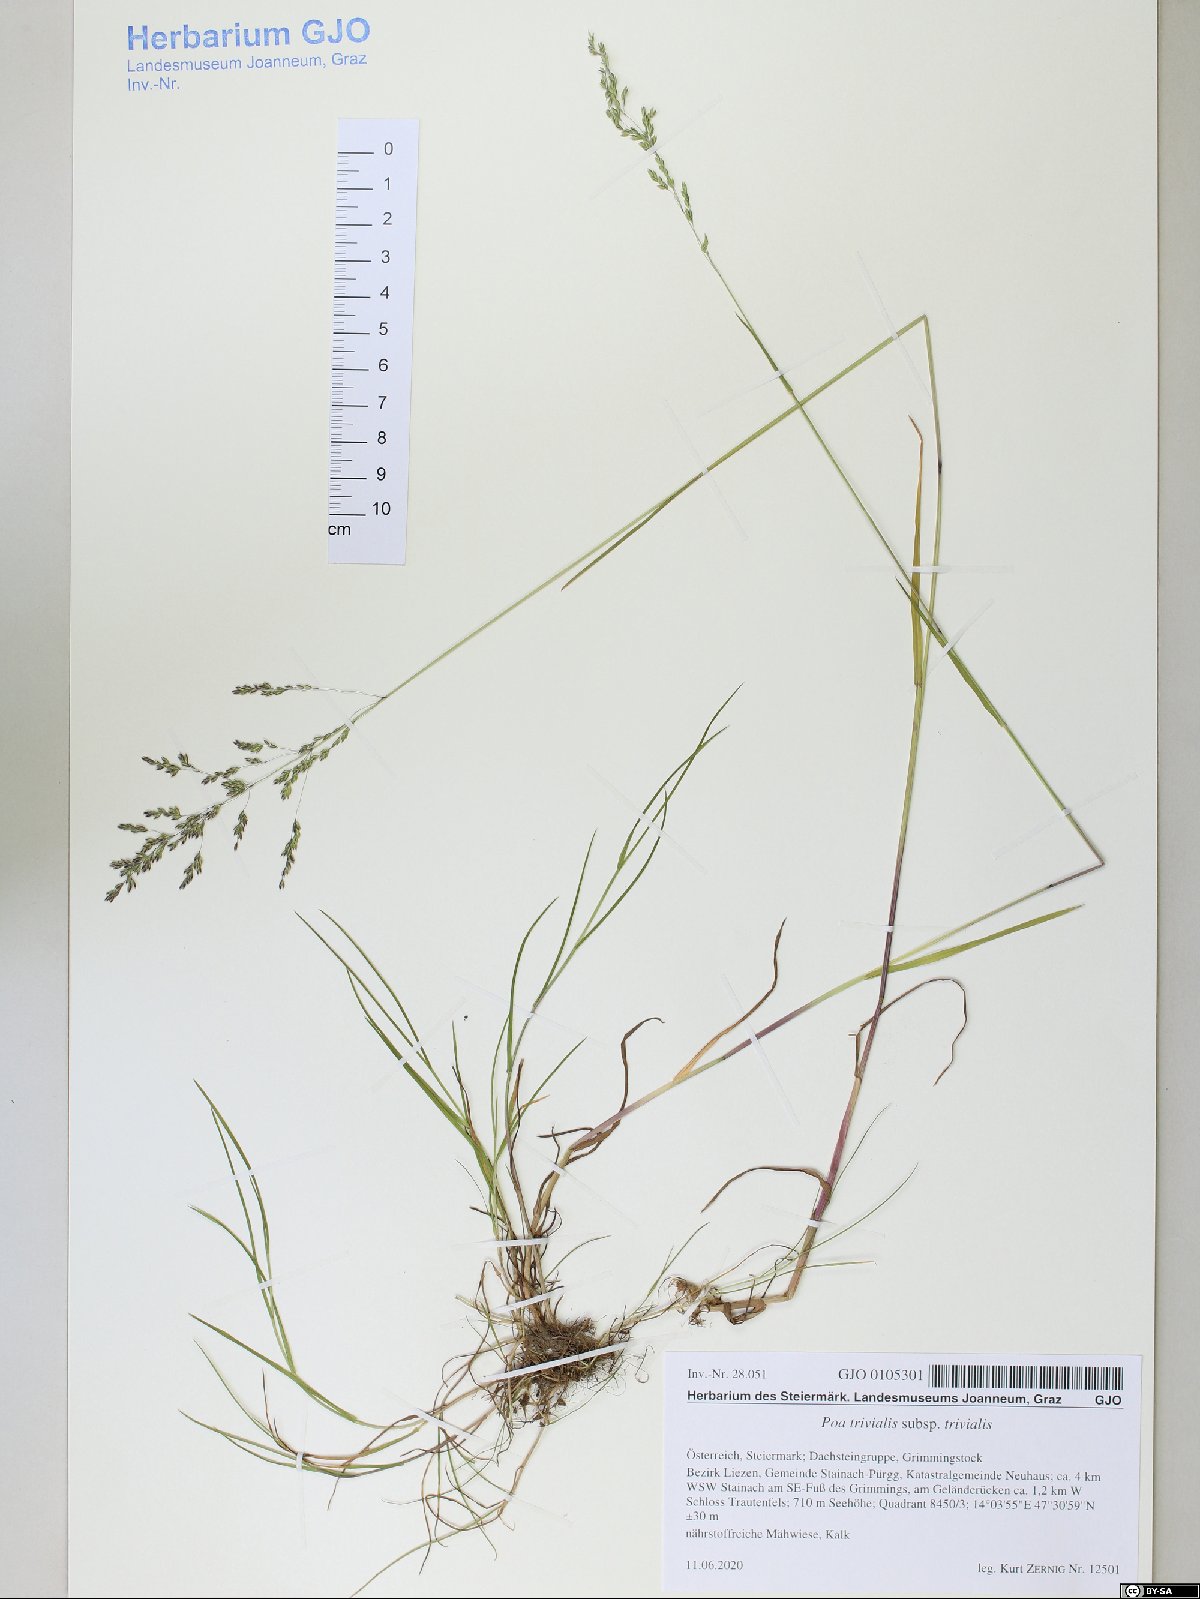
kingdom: Plantae
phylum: Tracheophyta
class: Liliopsida
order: Poales
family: Poaceae
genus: Poa
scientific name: Poa trivialis
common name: Rough bluegrass
